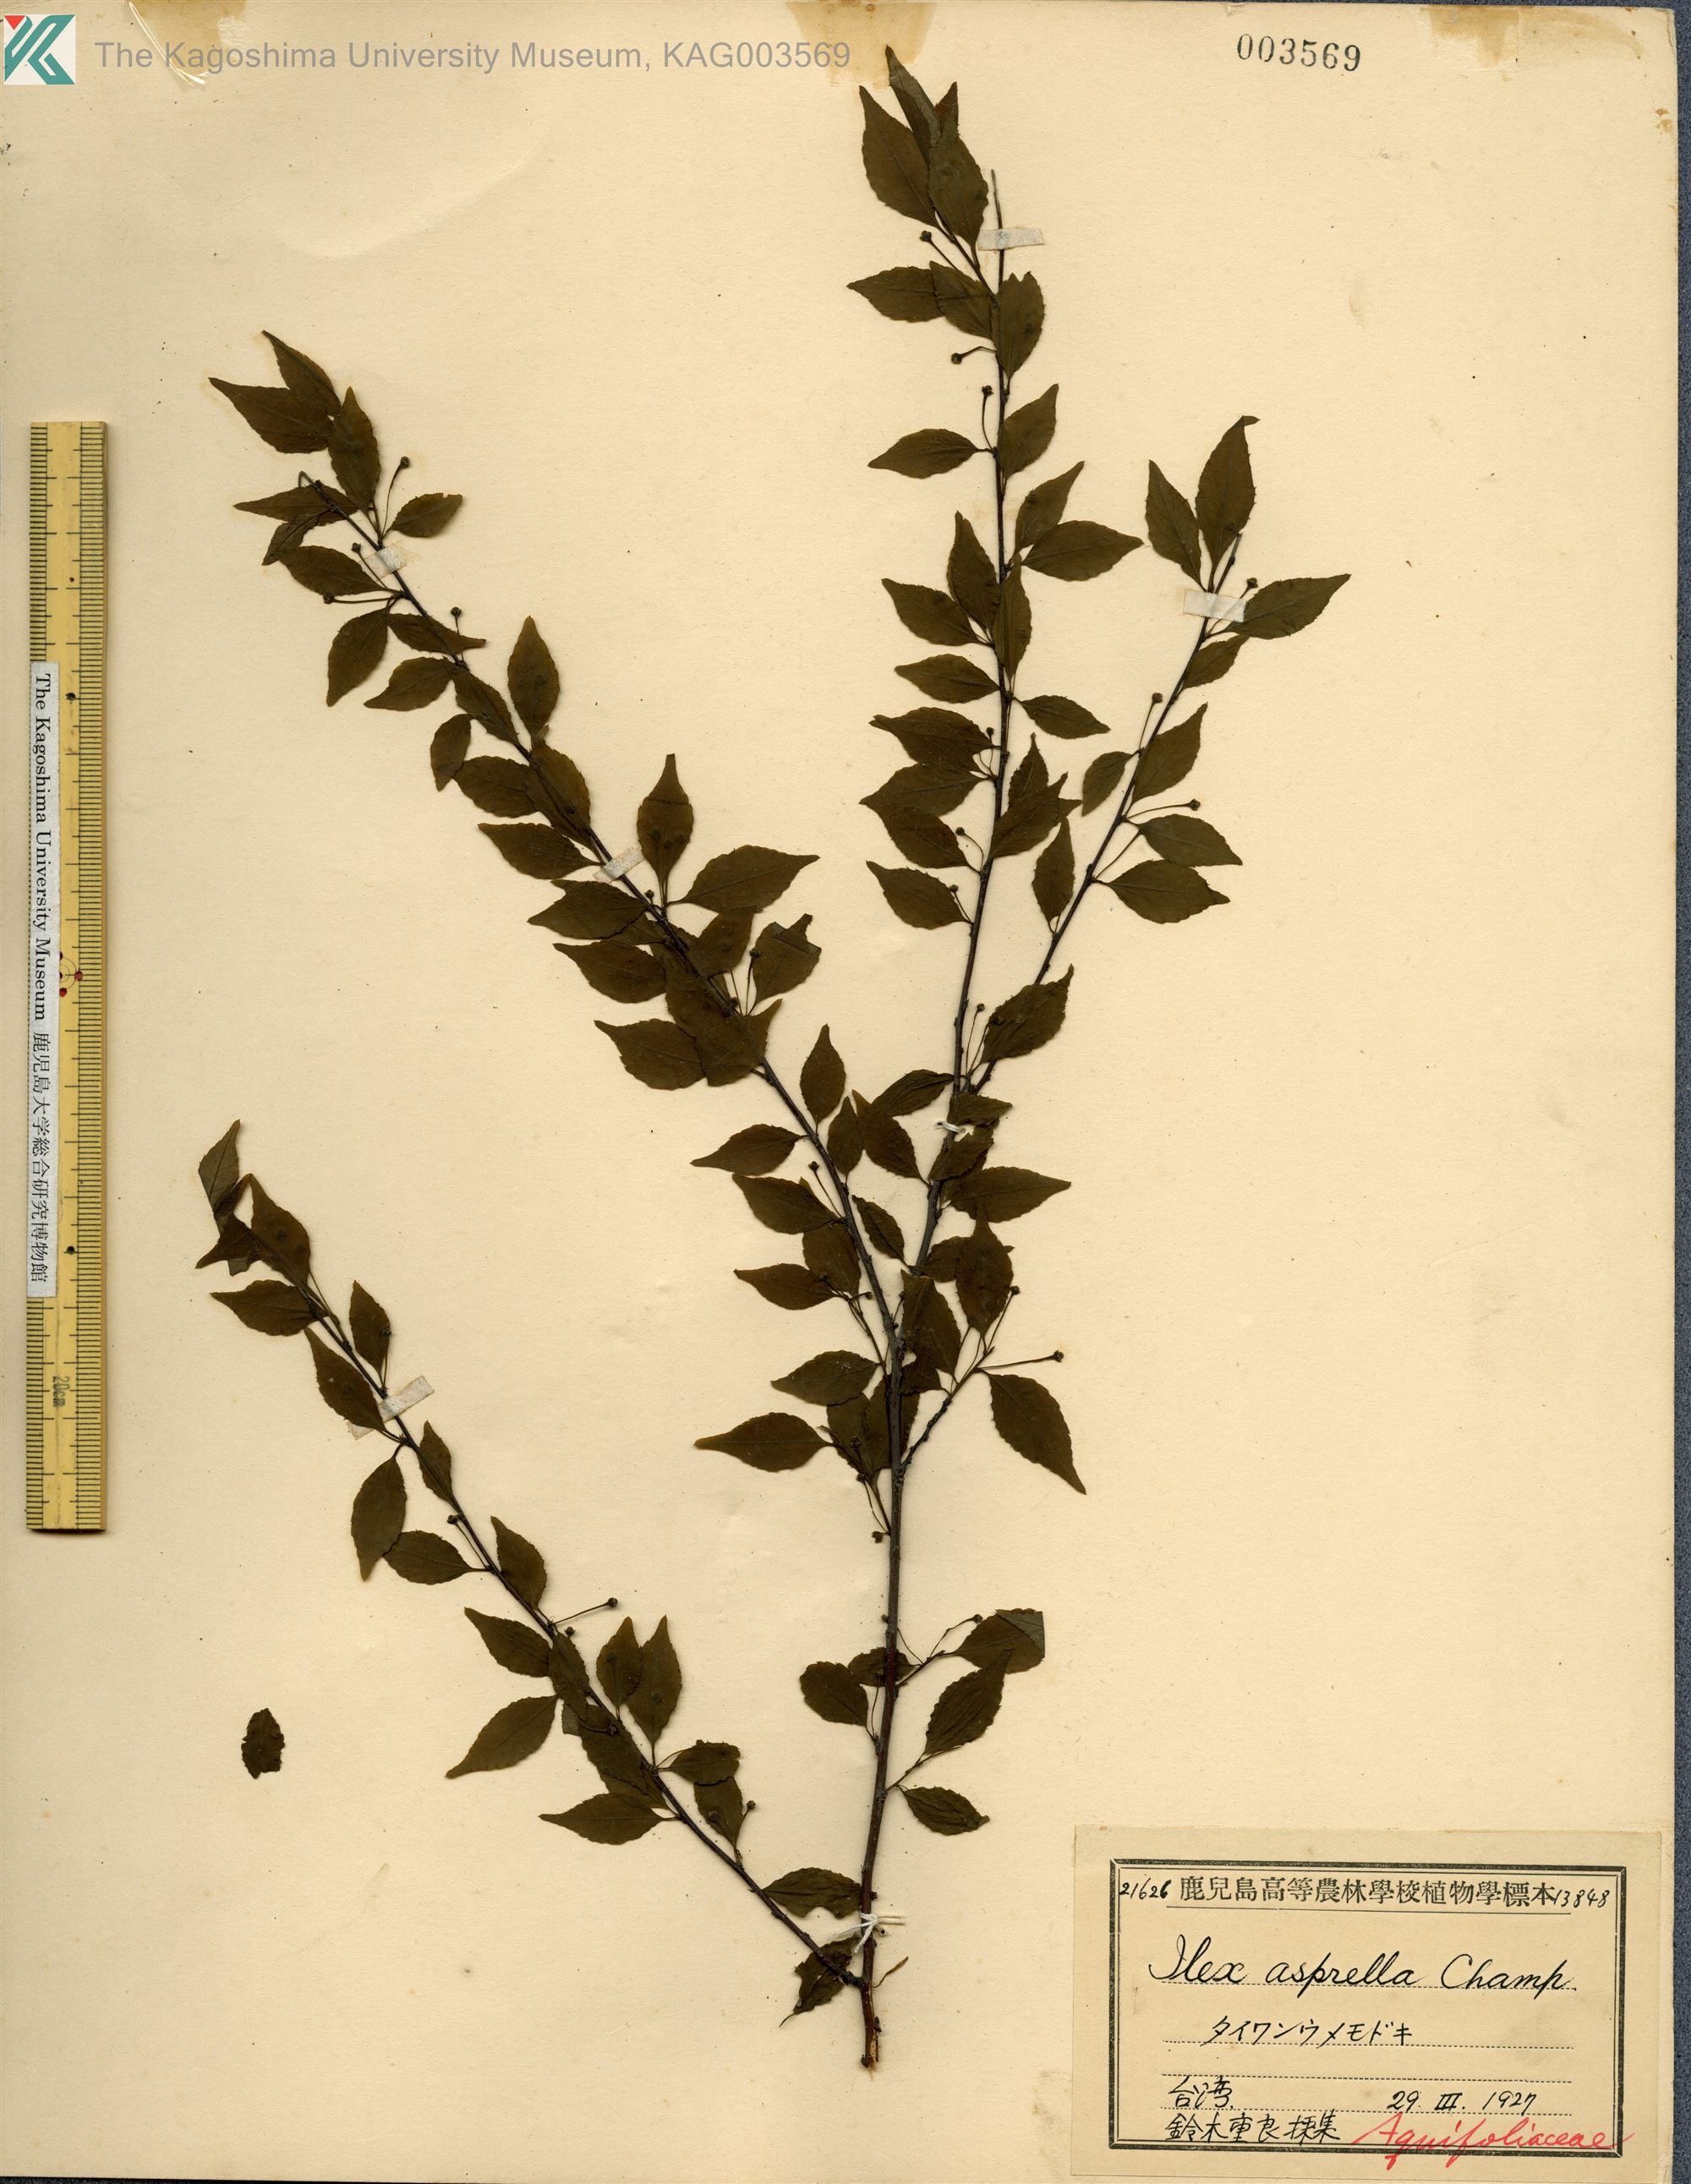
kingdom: Plantae
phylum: Tracheophyta
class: Magnoliopsida
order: Aquifoliales
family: Aquifoliaceae
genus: Ilex
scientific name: Ilex asprella
